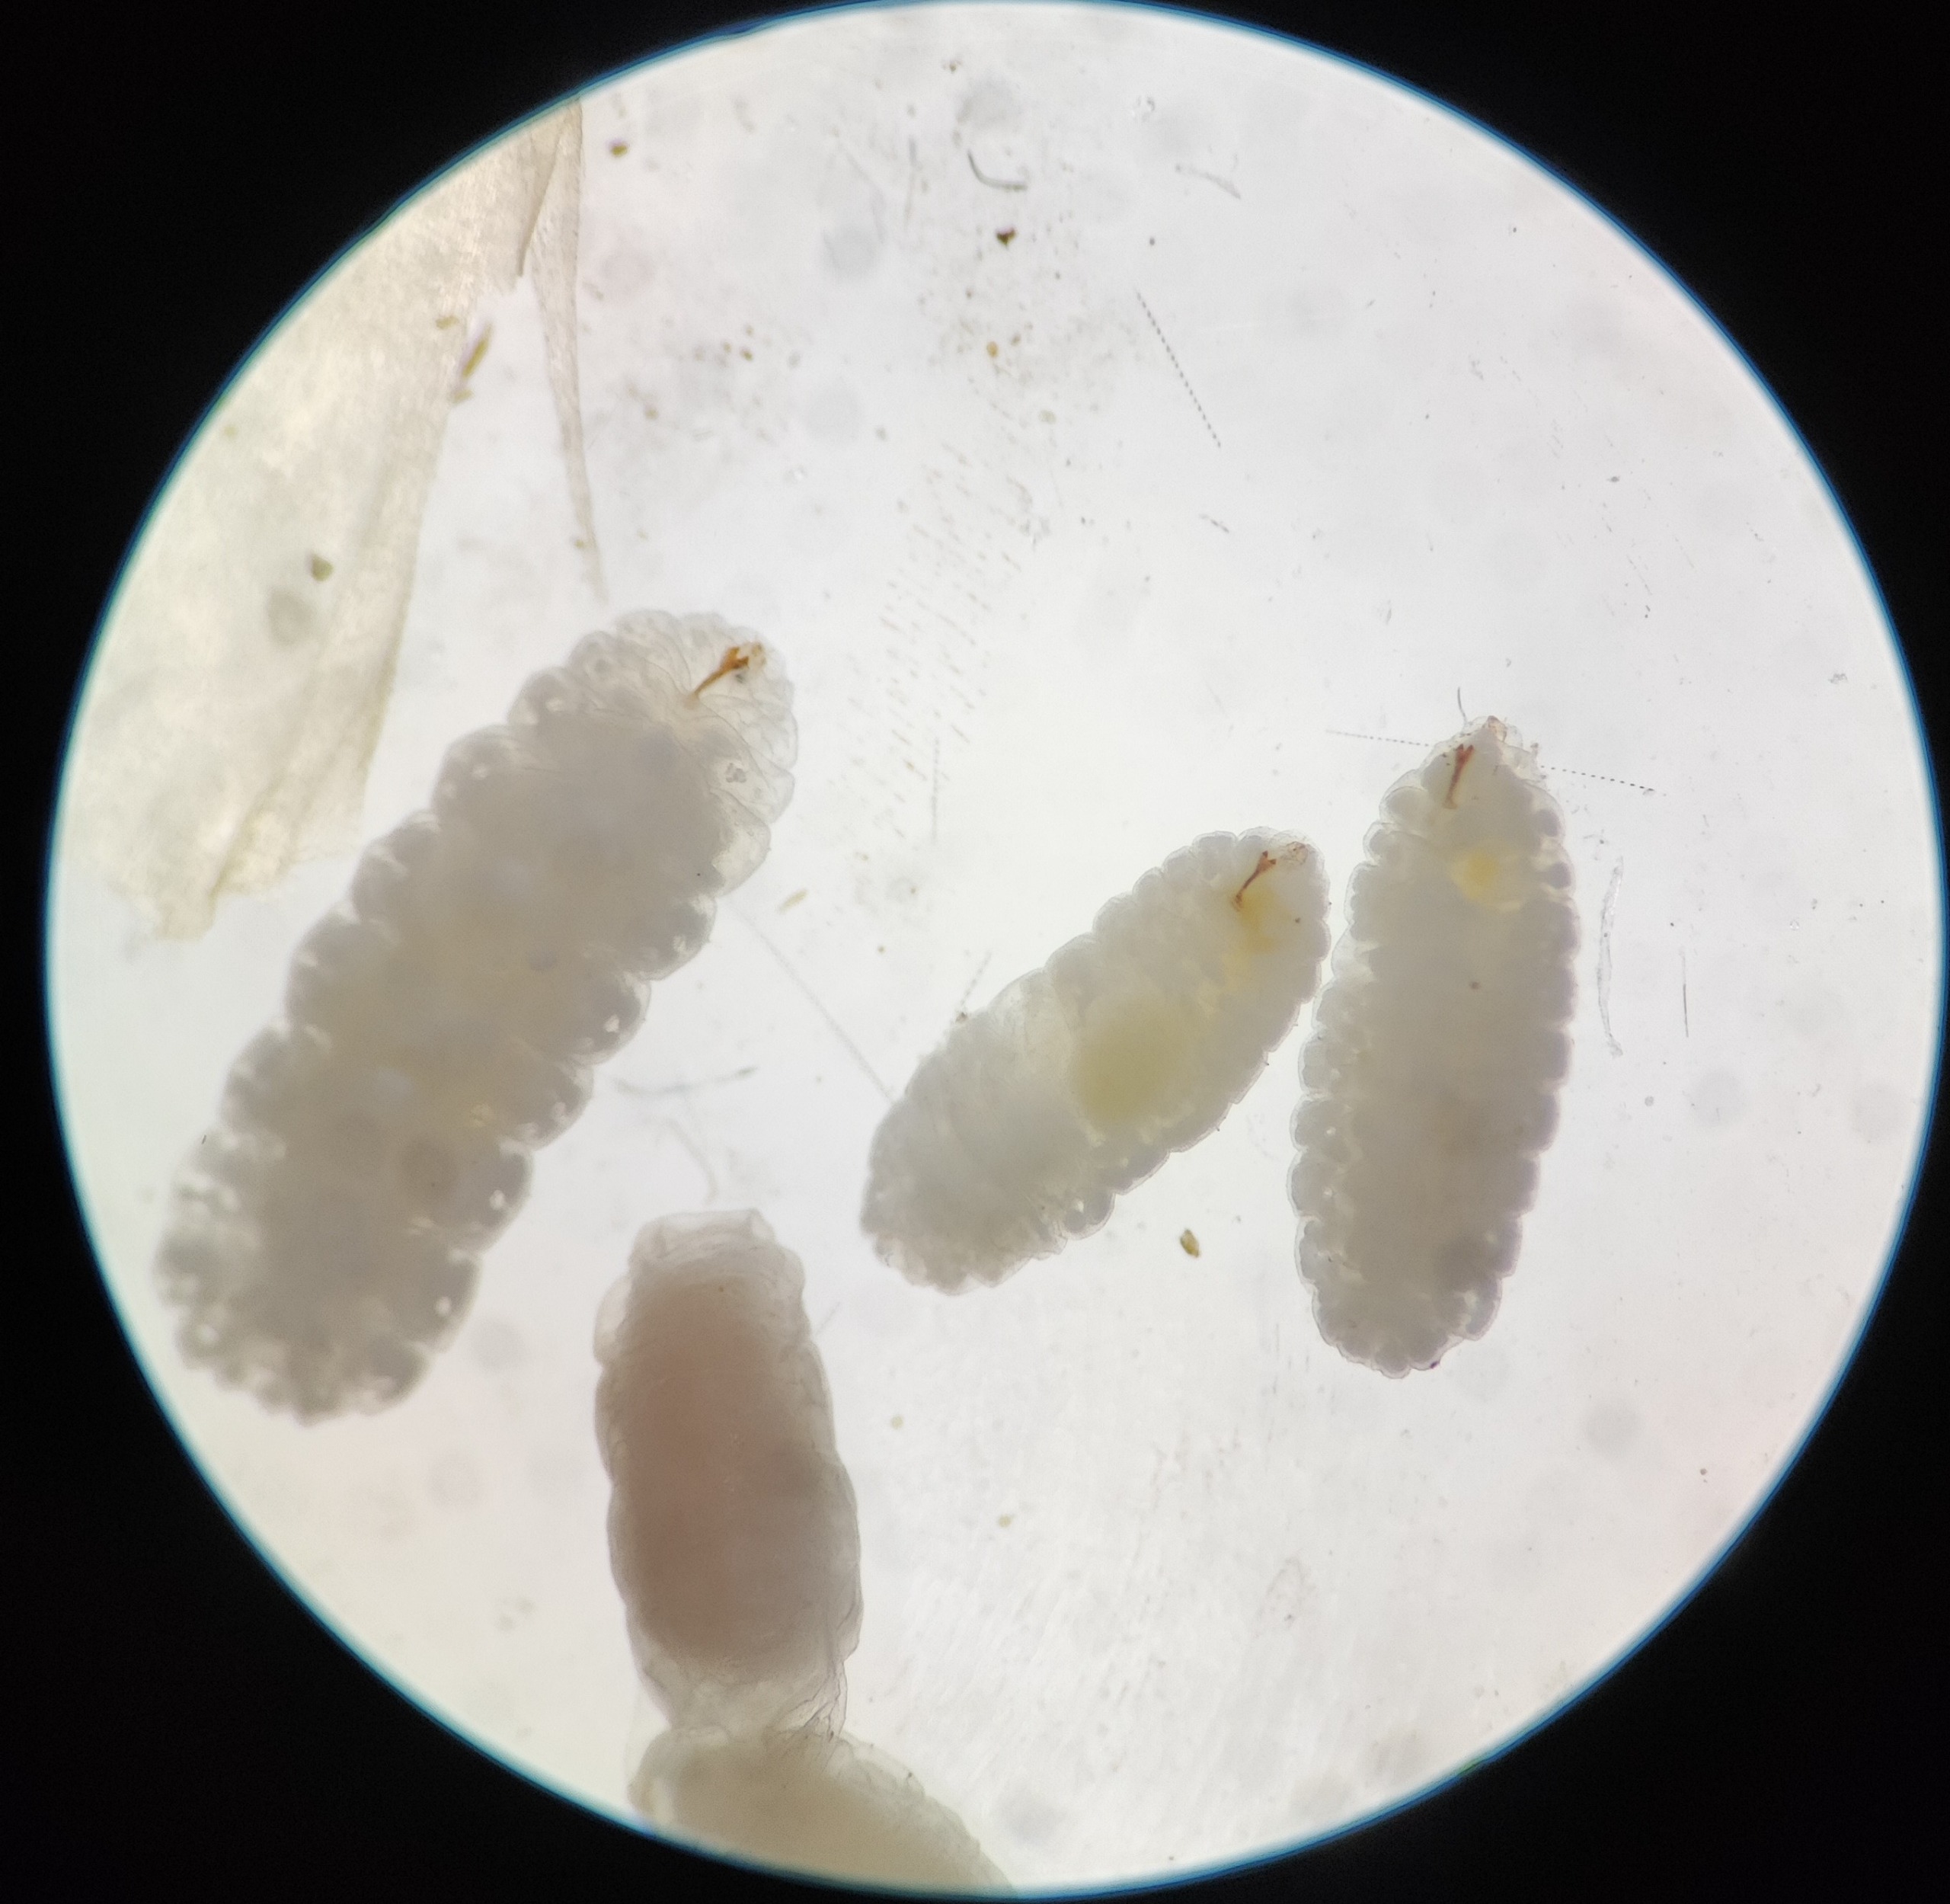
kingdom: Animalia
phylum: Arthropoda
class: Insecta
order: Diptera
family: Cecidomyiidae
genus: Dasineura
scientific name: Dasineura holosteae
